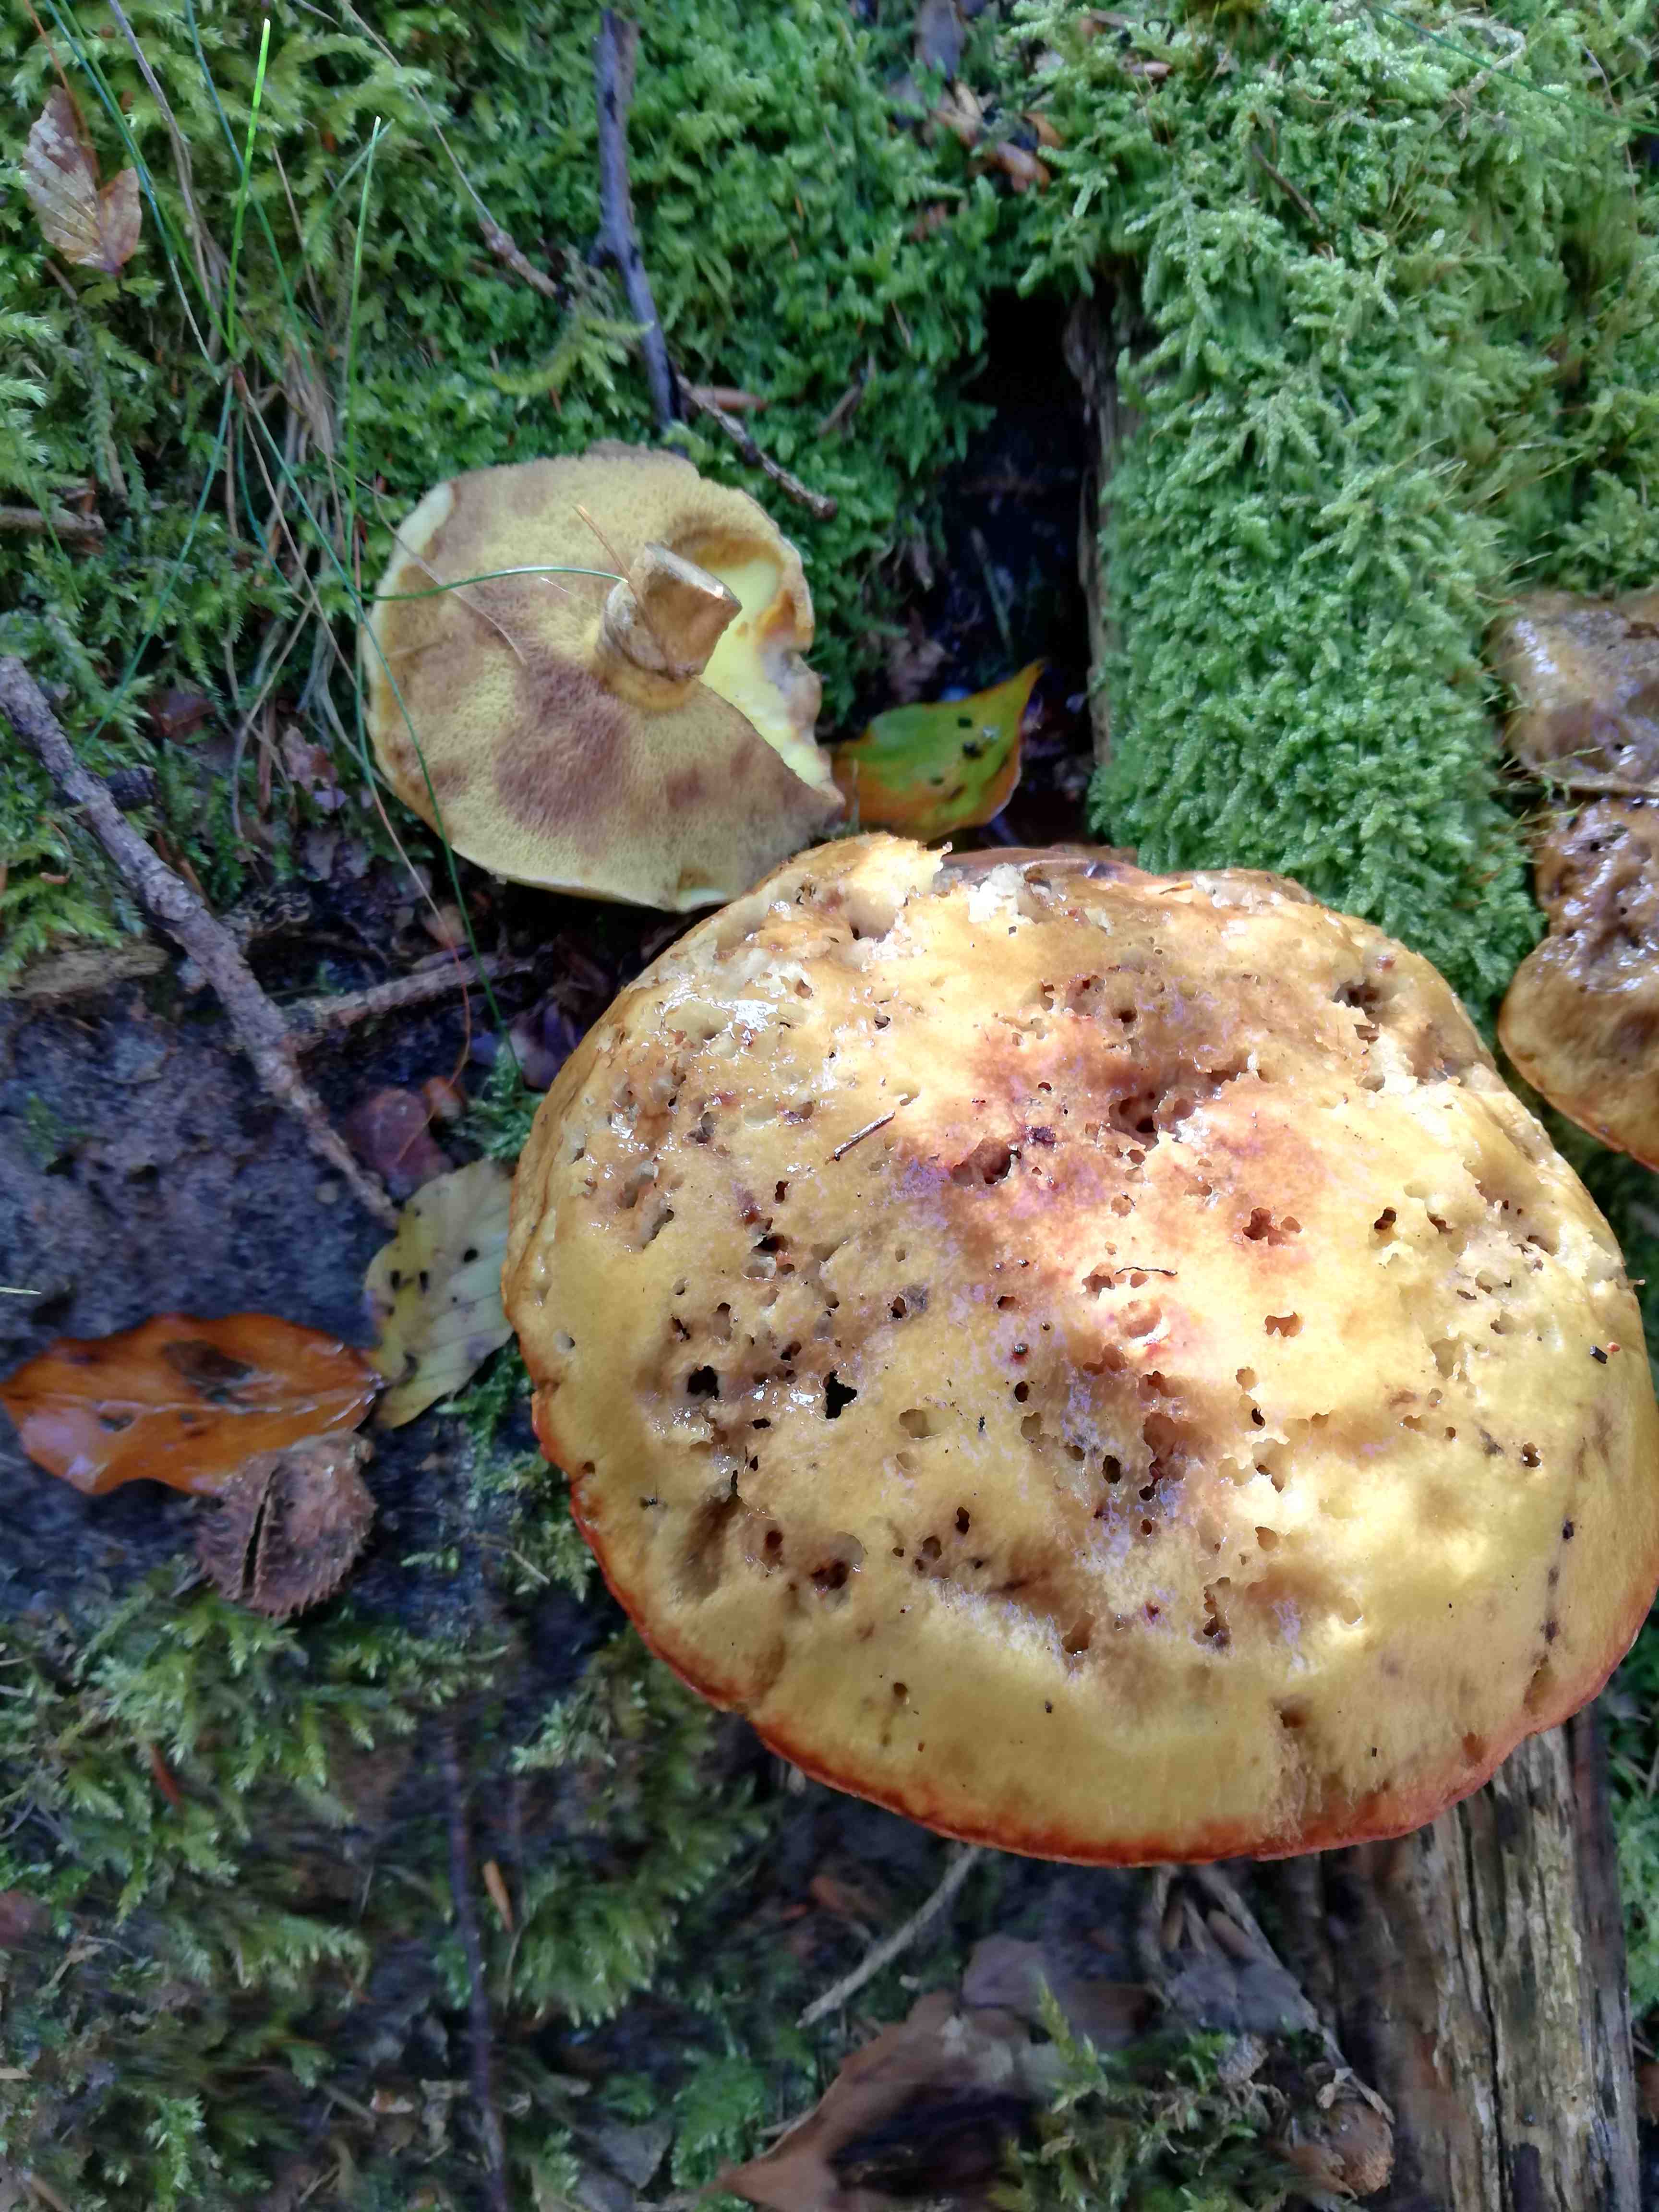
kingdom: Fungi
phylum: Basidiomycota
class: Agaricomycetes
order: Boletales
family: Suillaceae
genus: Suillus
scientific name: Suillus grevillei
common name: lærke-slimrørhat
